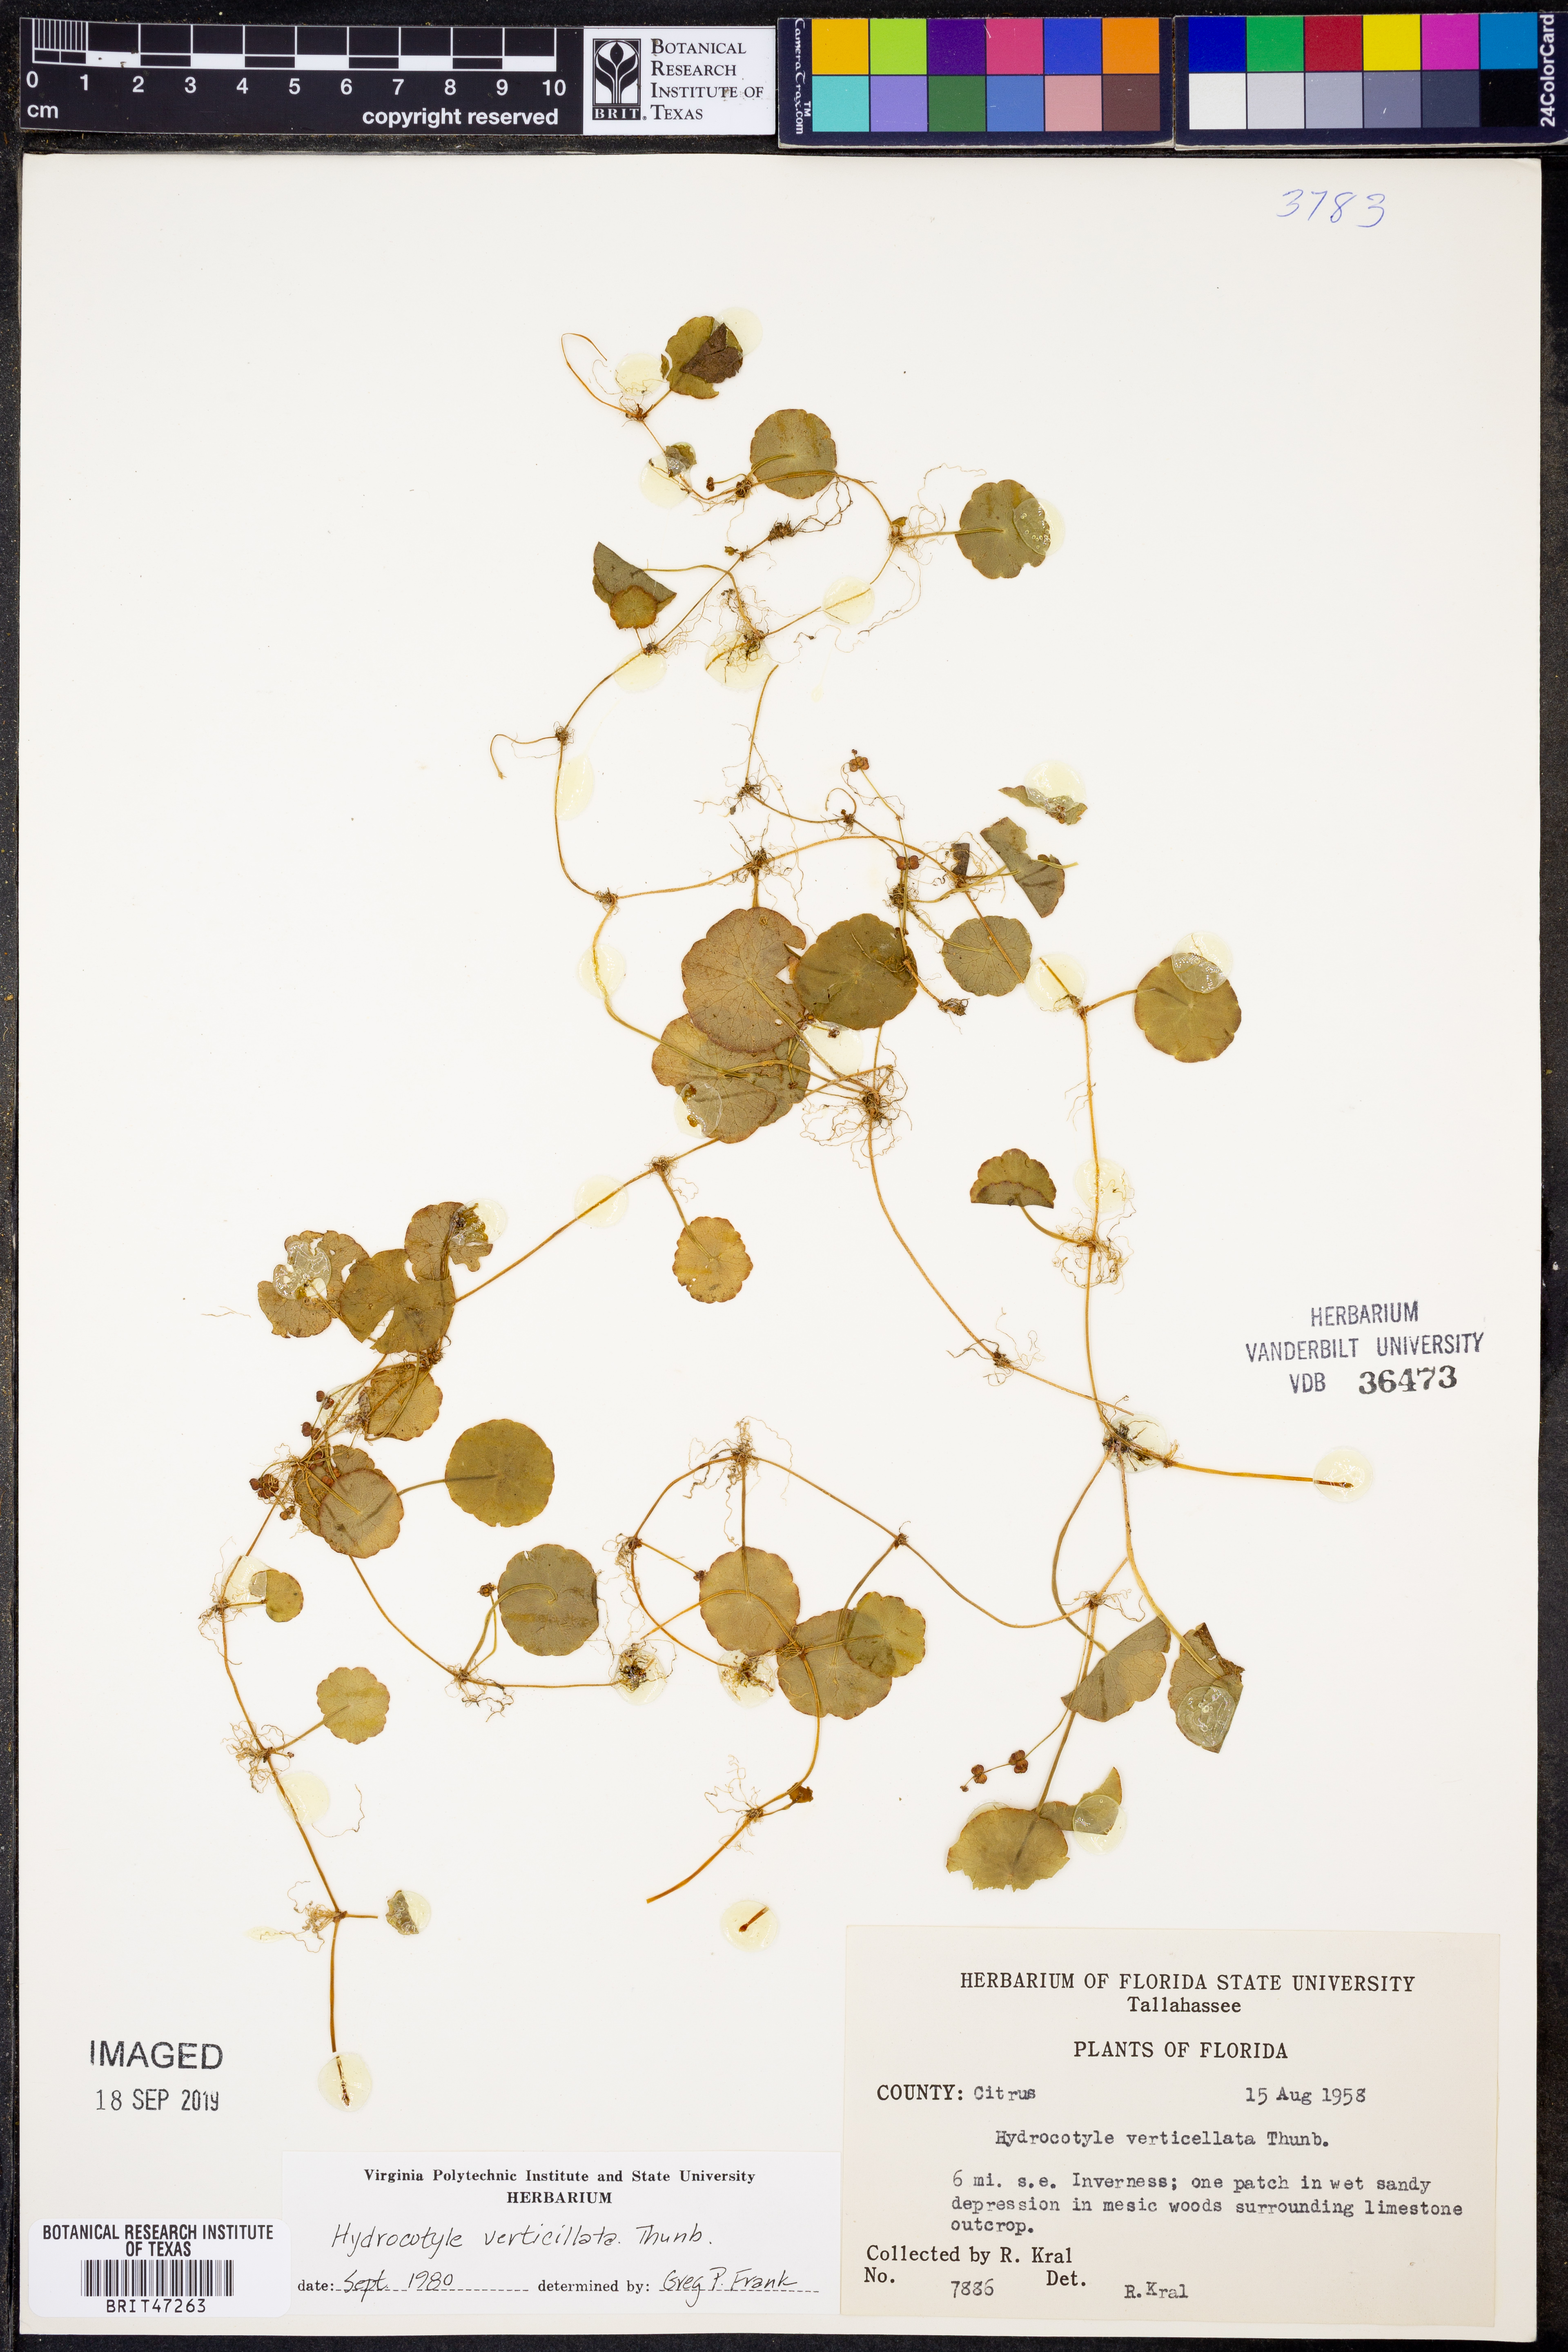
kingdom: Plantae
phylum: Tracheophyta
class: Magnoliopsida
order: Apiales
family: Araliaceae
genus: Hydrocotyle
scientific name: Hydrocotyle verticillata
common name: Whorled marshpennywort
